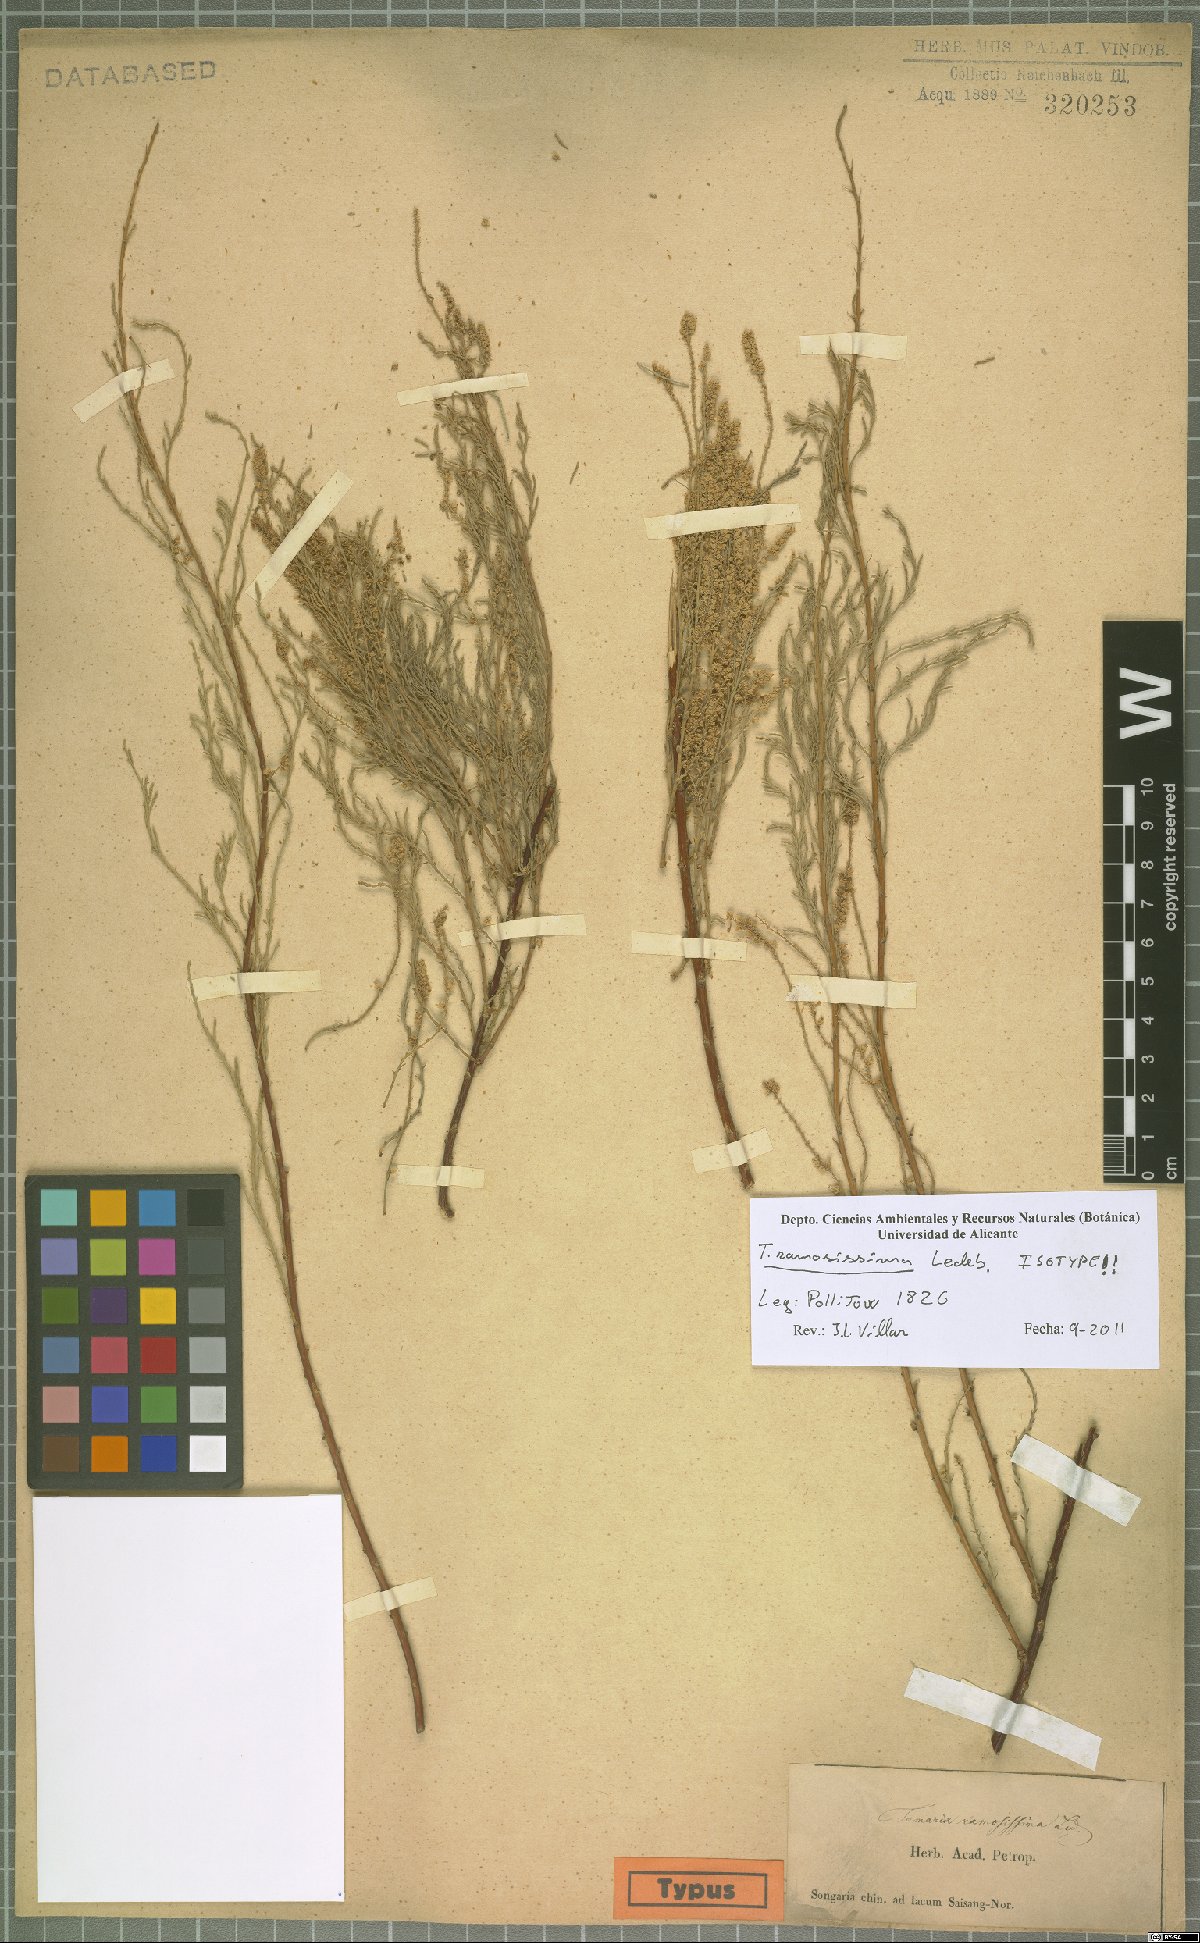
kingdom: Plantae
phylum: Tracheophyta
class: Magnoliopsida
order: Caryophyllales
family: Tamaricaceae
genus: Tamarix
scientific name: Tamarix ramosissima
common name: Pink tamarisk
